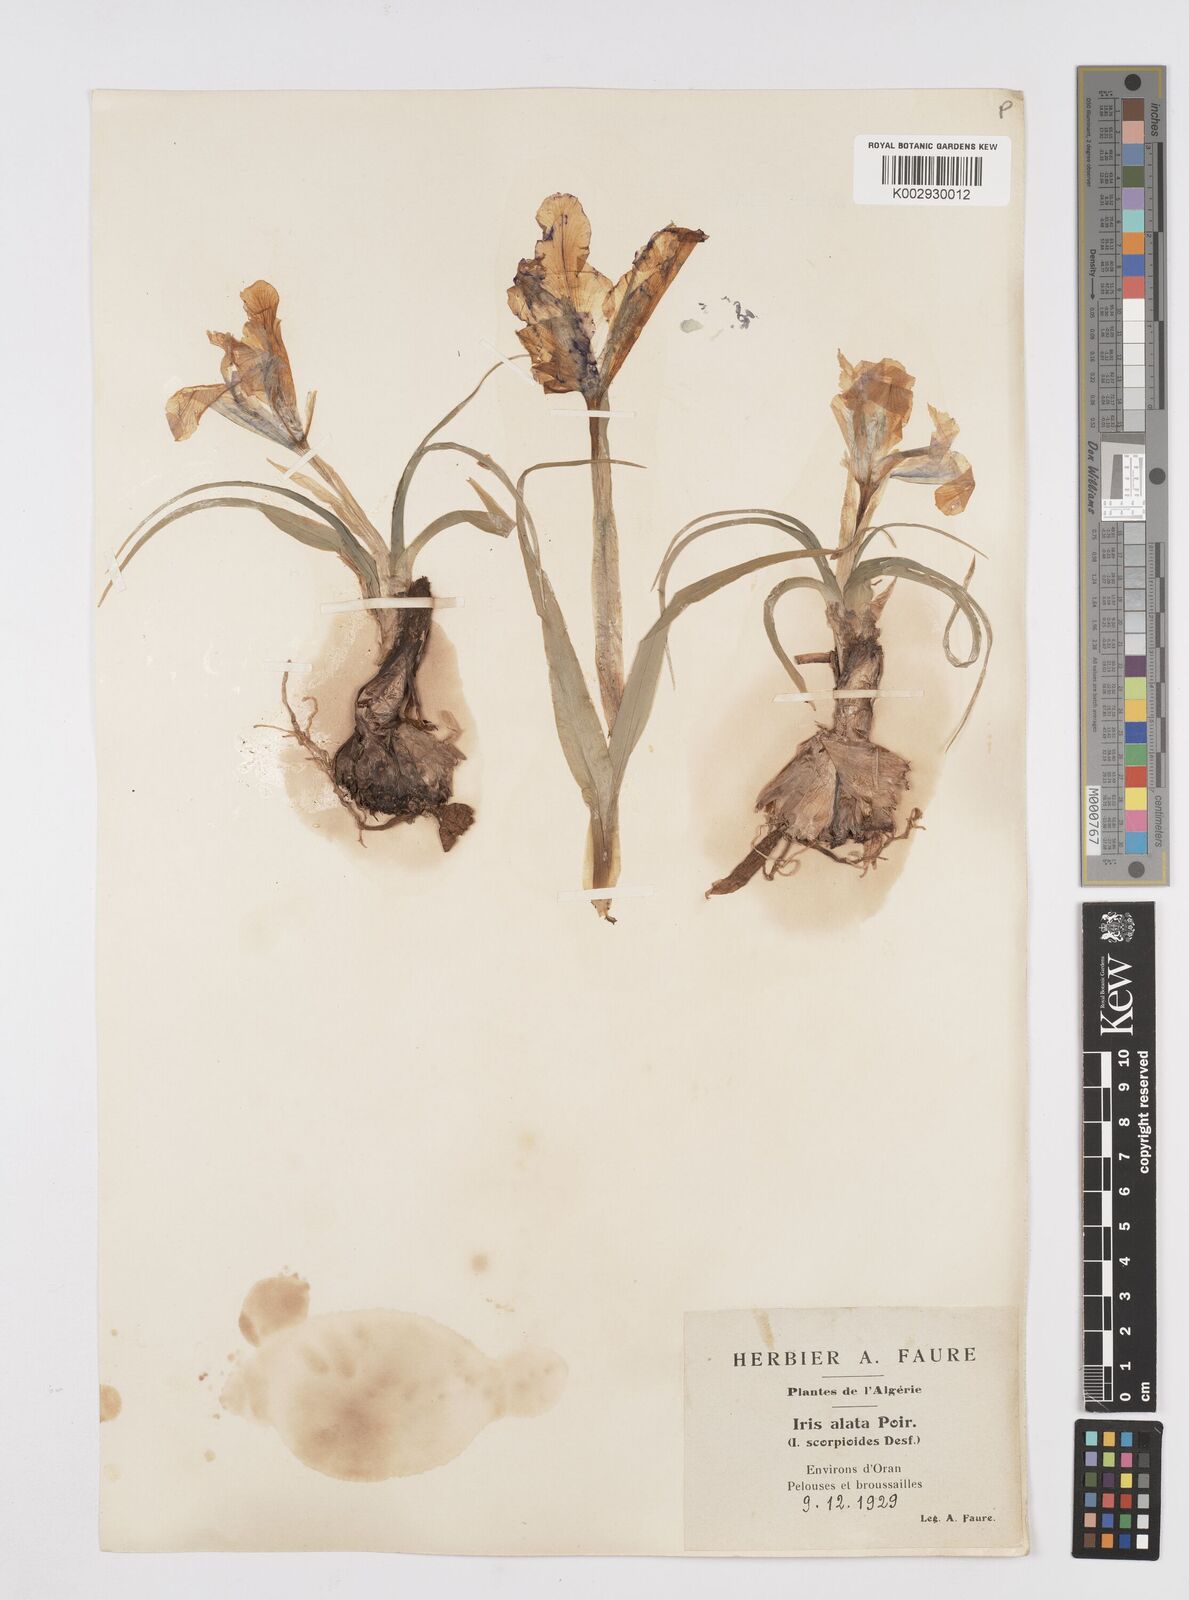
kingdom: Plantae
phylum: Tracheophyta
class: Liliopsida
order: Asparagales
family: Iridaceae
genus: Iris
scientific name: Iris planifolia
